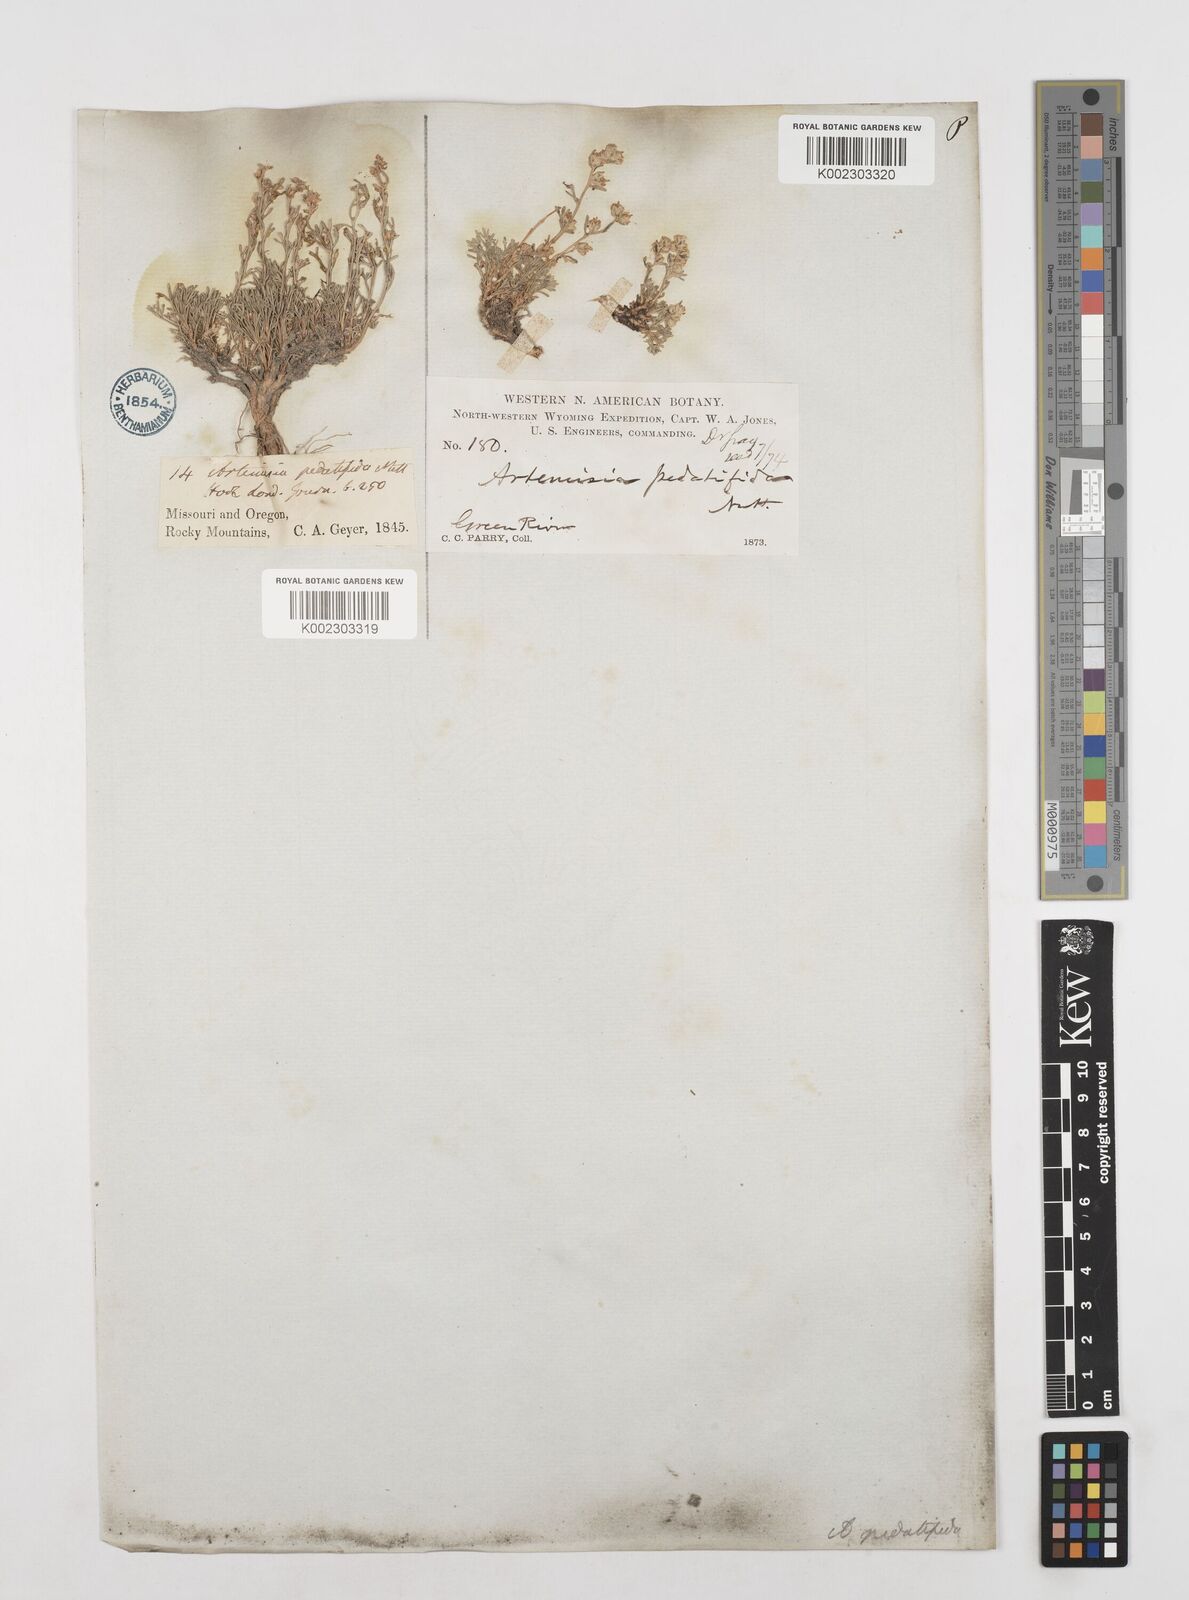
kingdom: Plantae
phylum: Tracheophyta
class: Magnoliopsida
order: Asterales
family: Asteraceae
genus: Artemisia
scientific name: Artemisia pedatifida
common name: Matted sagewort
